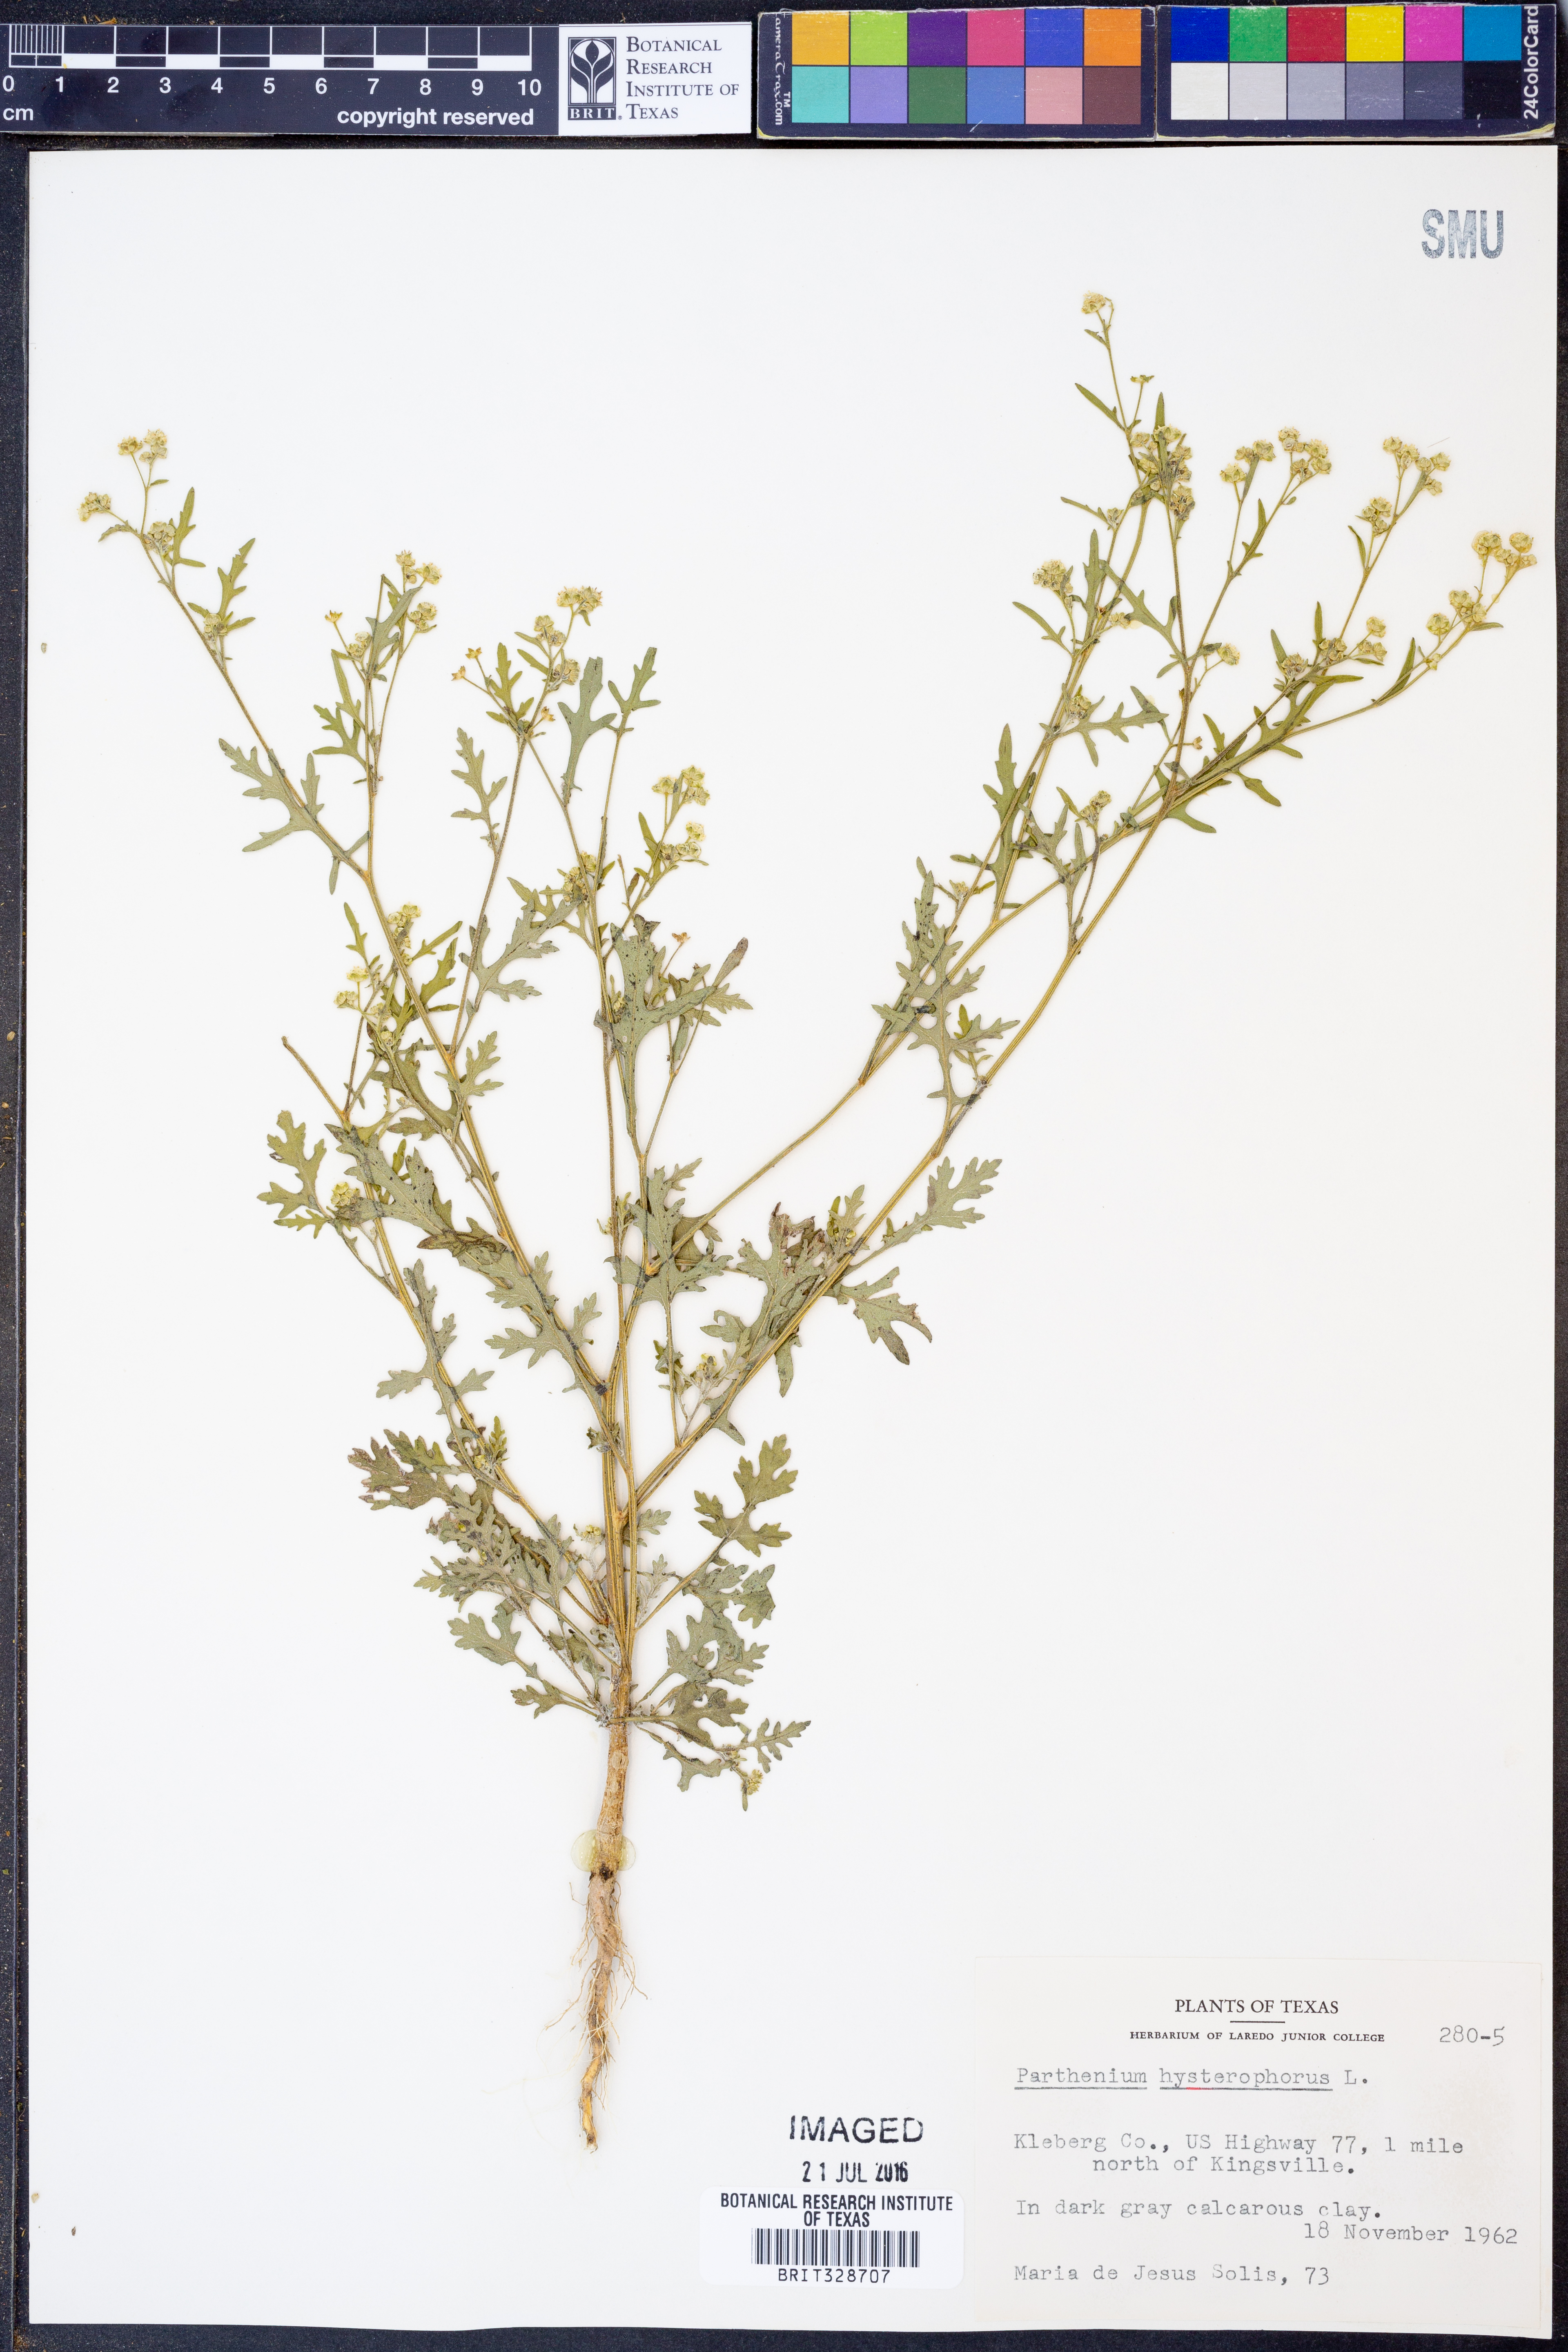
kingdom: Plantae
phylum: Tracheophyta
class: Magnoliopsida
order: Asterales
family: Asteraceae
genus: Parthenium
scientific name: Parthenium hysterophorus
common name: Santa maria feverfew
